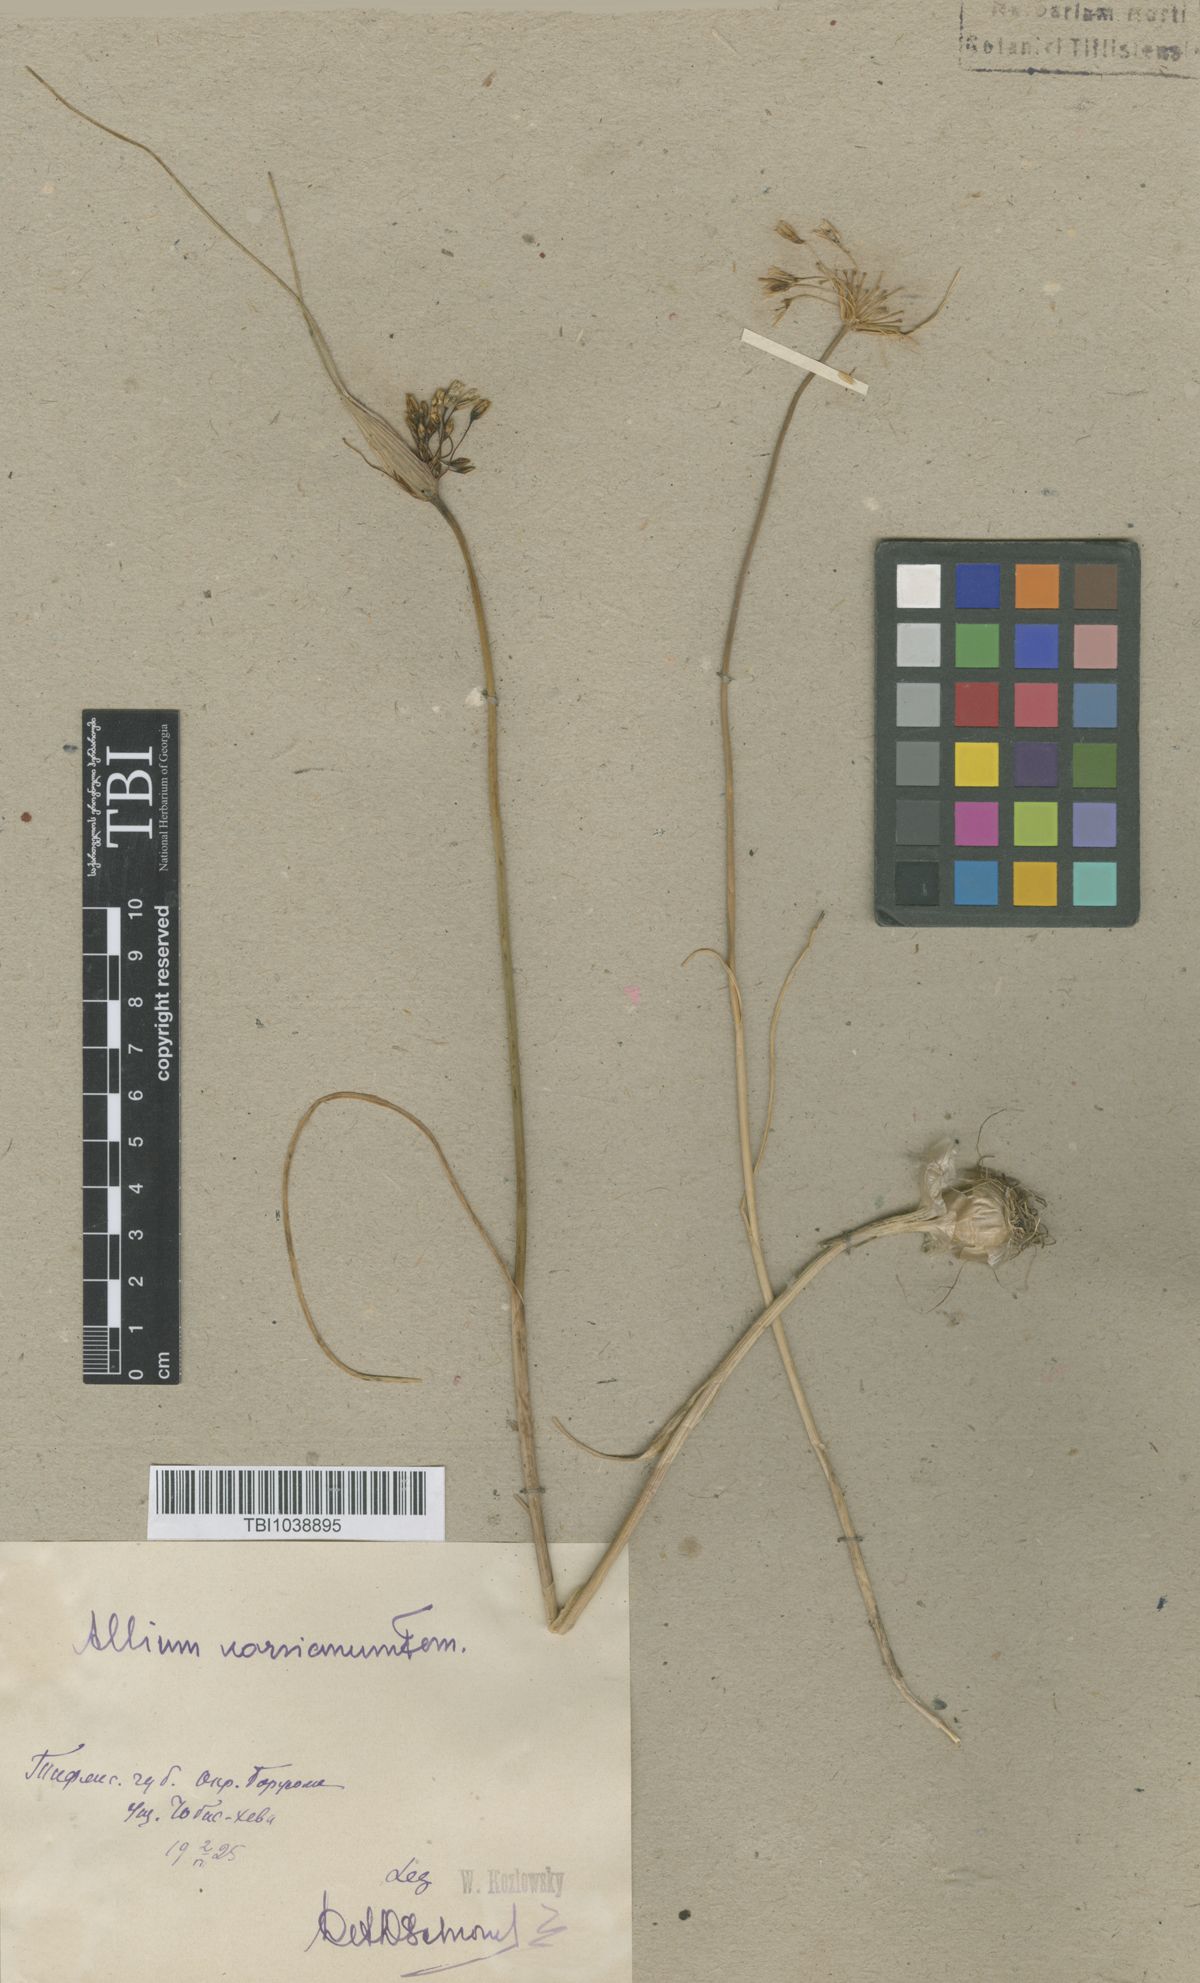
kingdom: Plantae
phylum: Tracheophyta
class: Liliopsida
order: Asparagales
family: Amaryllidaceae
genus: Allium
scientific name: Allium paniculatum
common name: Pale garlic
